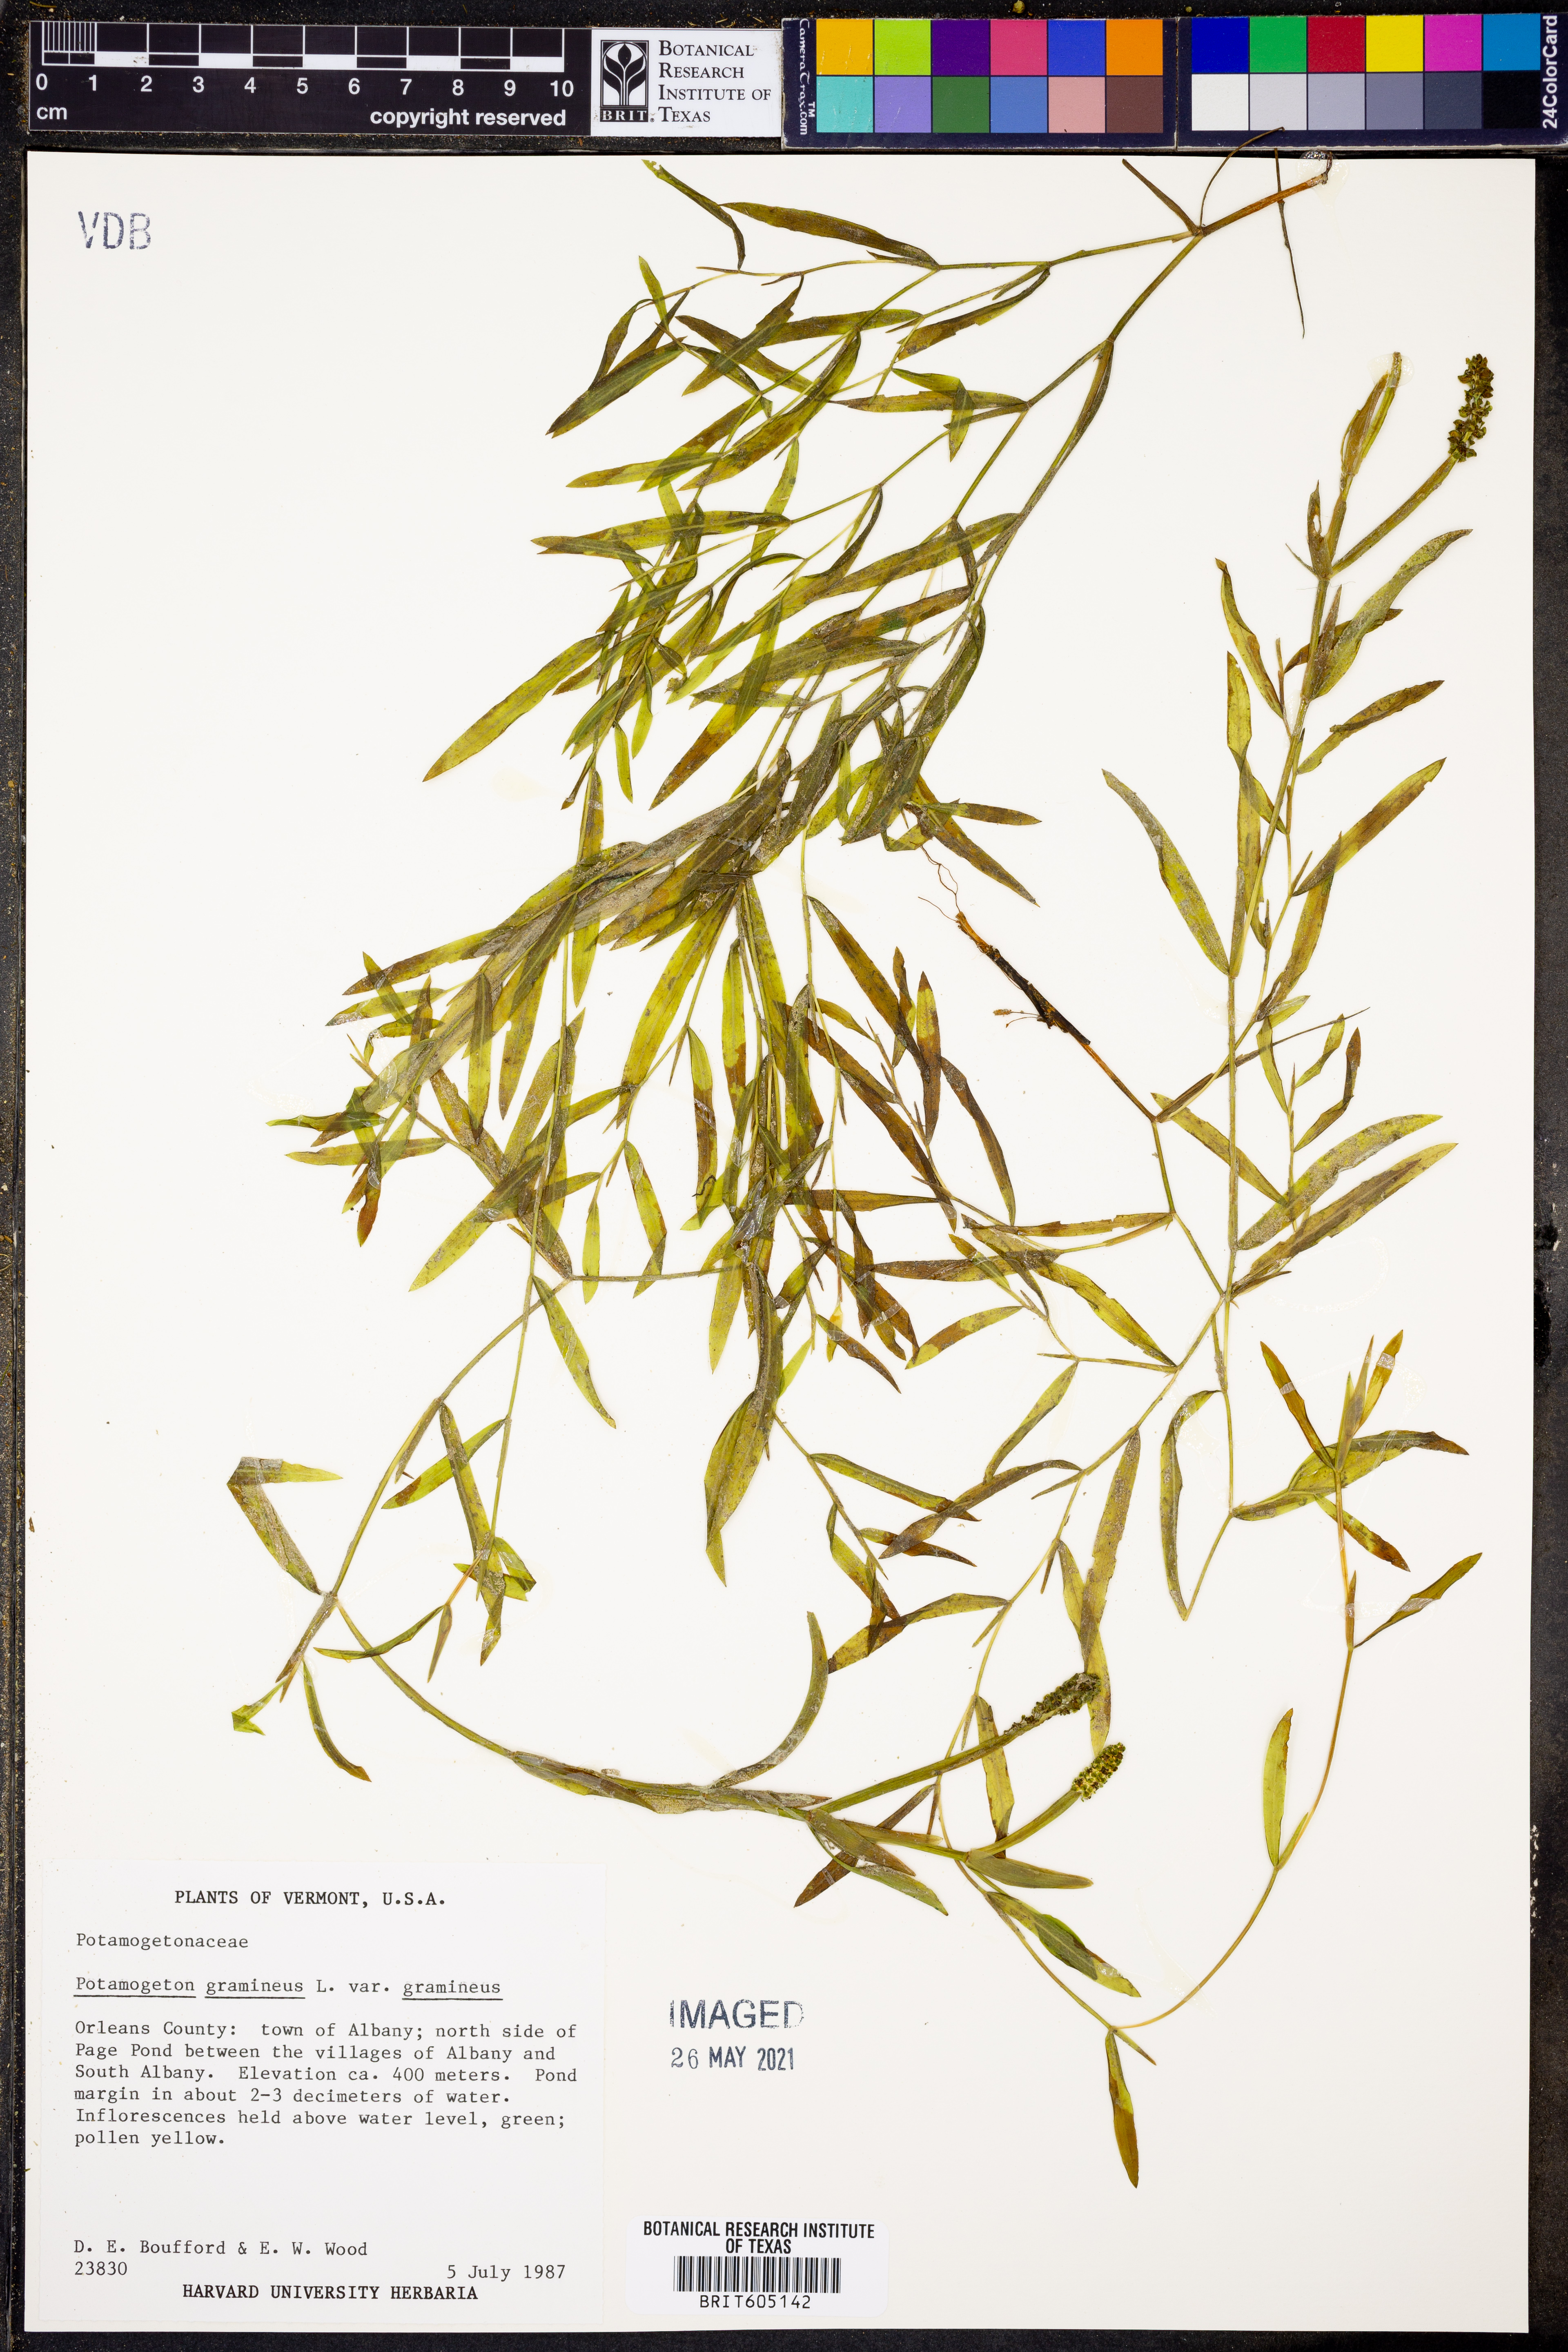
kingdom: Plantae
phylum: Tracheophyta
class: Liliopsida
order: Alismatales
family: Potamogetonaceae
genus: Potamogeton
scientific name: Potamogeton gramineus
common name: Various-leaved pondweed
